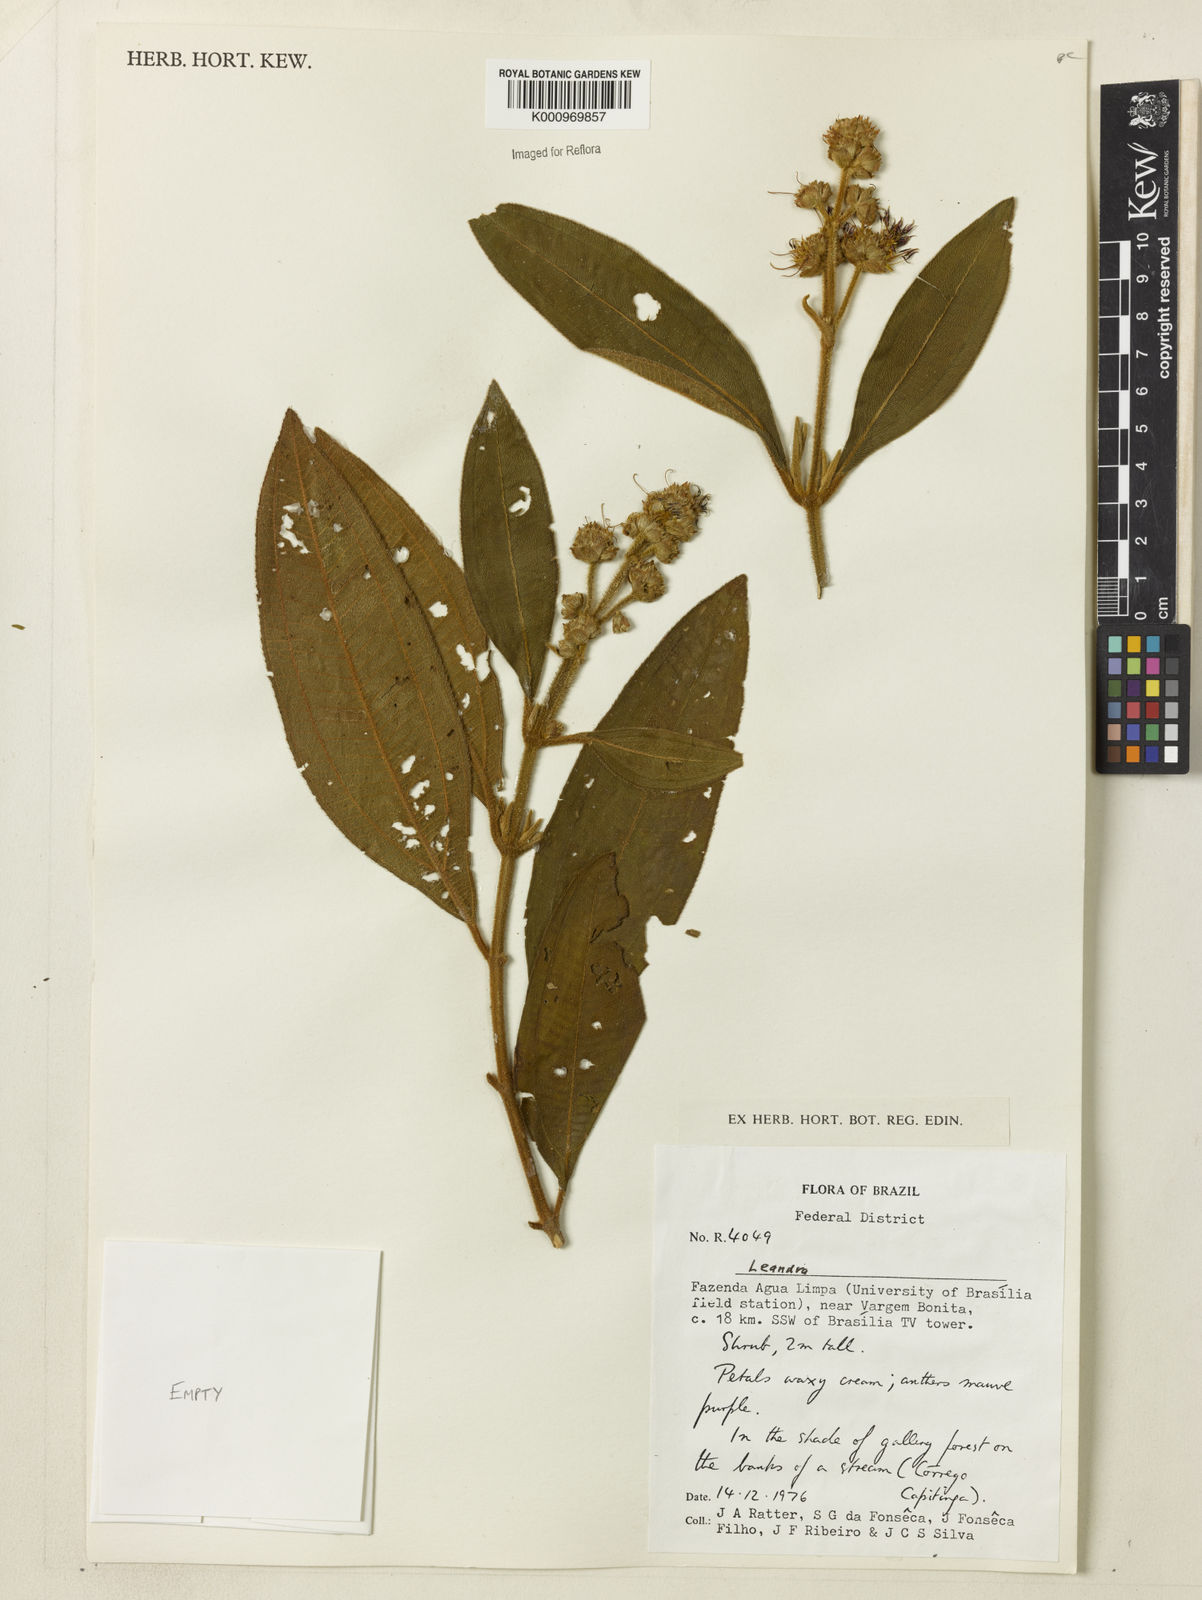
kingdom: Plantae
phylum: Tracheophyta
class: Magnoliopsida
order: Myrtales
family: Melastomataceae
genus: Miconia
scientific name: Miconia
